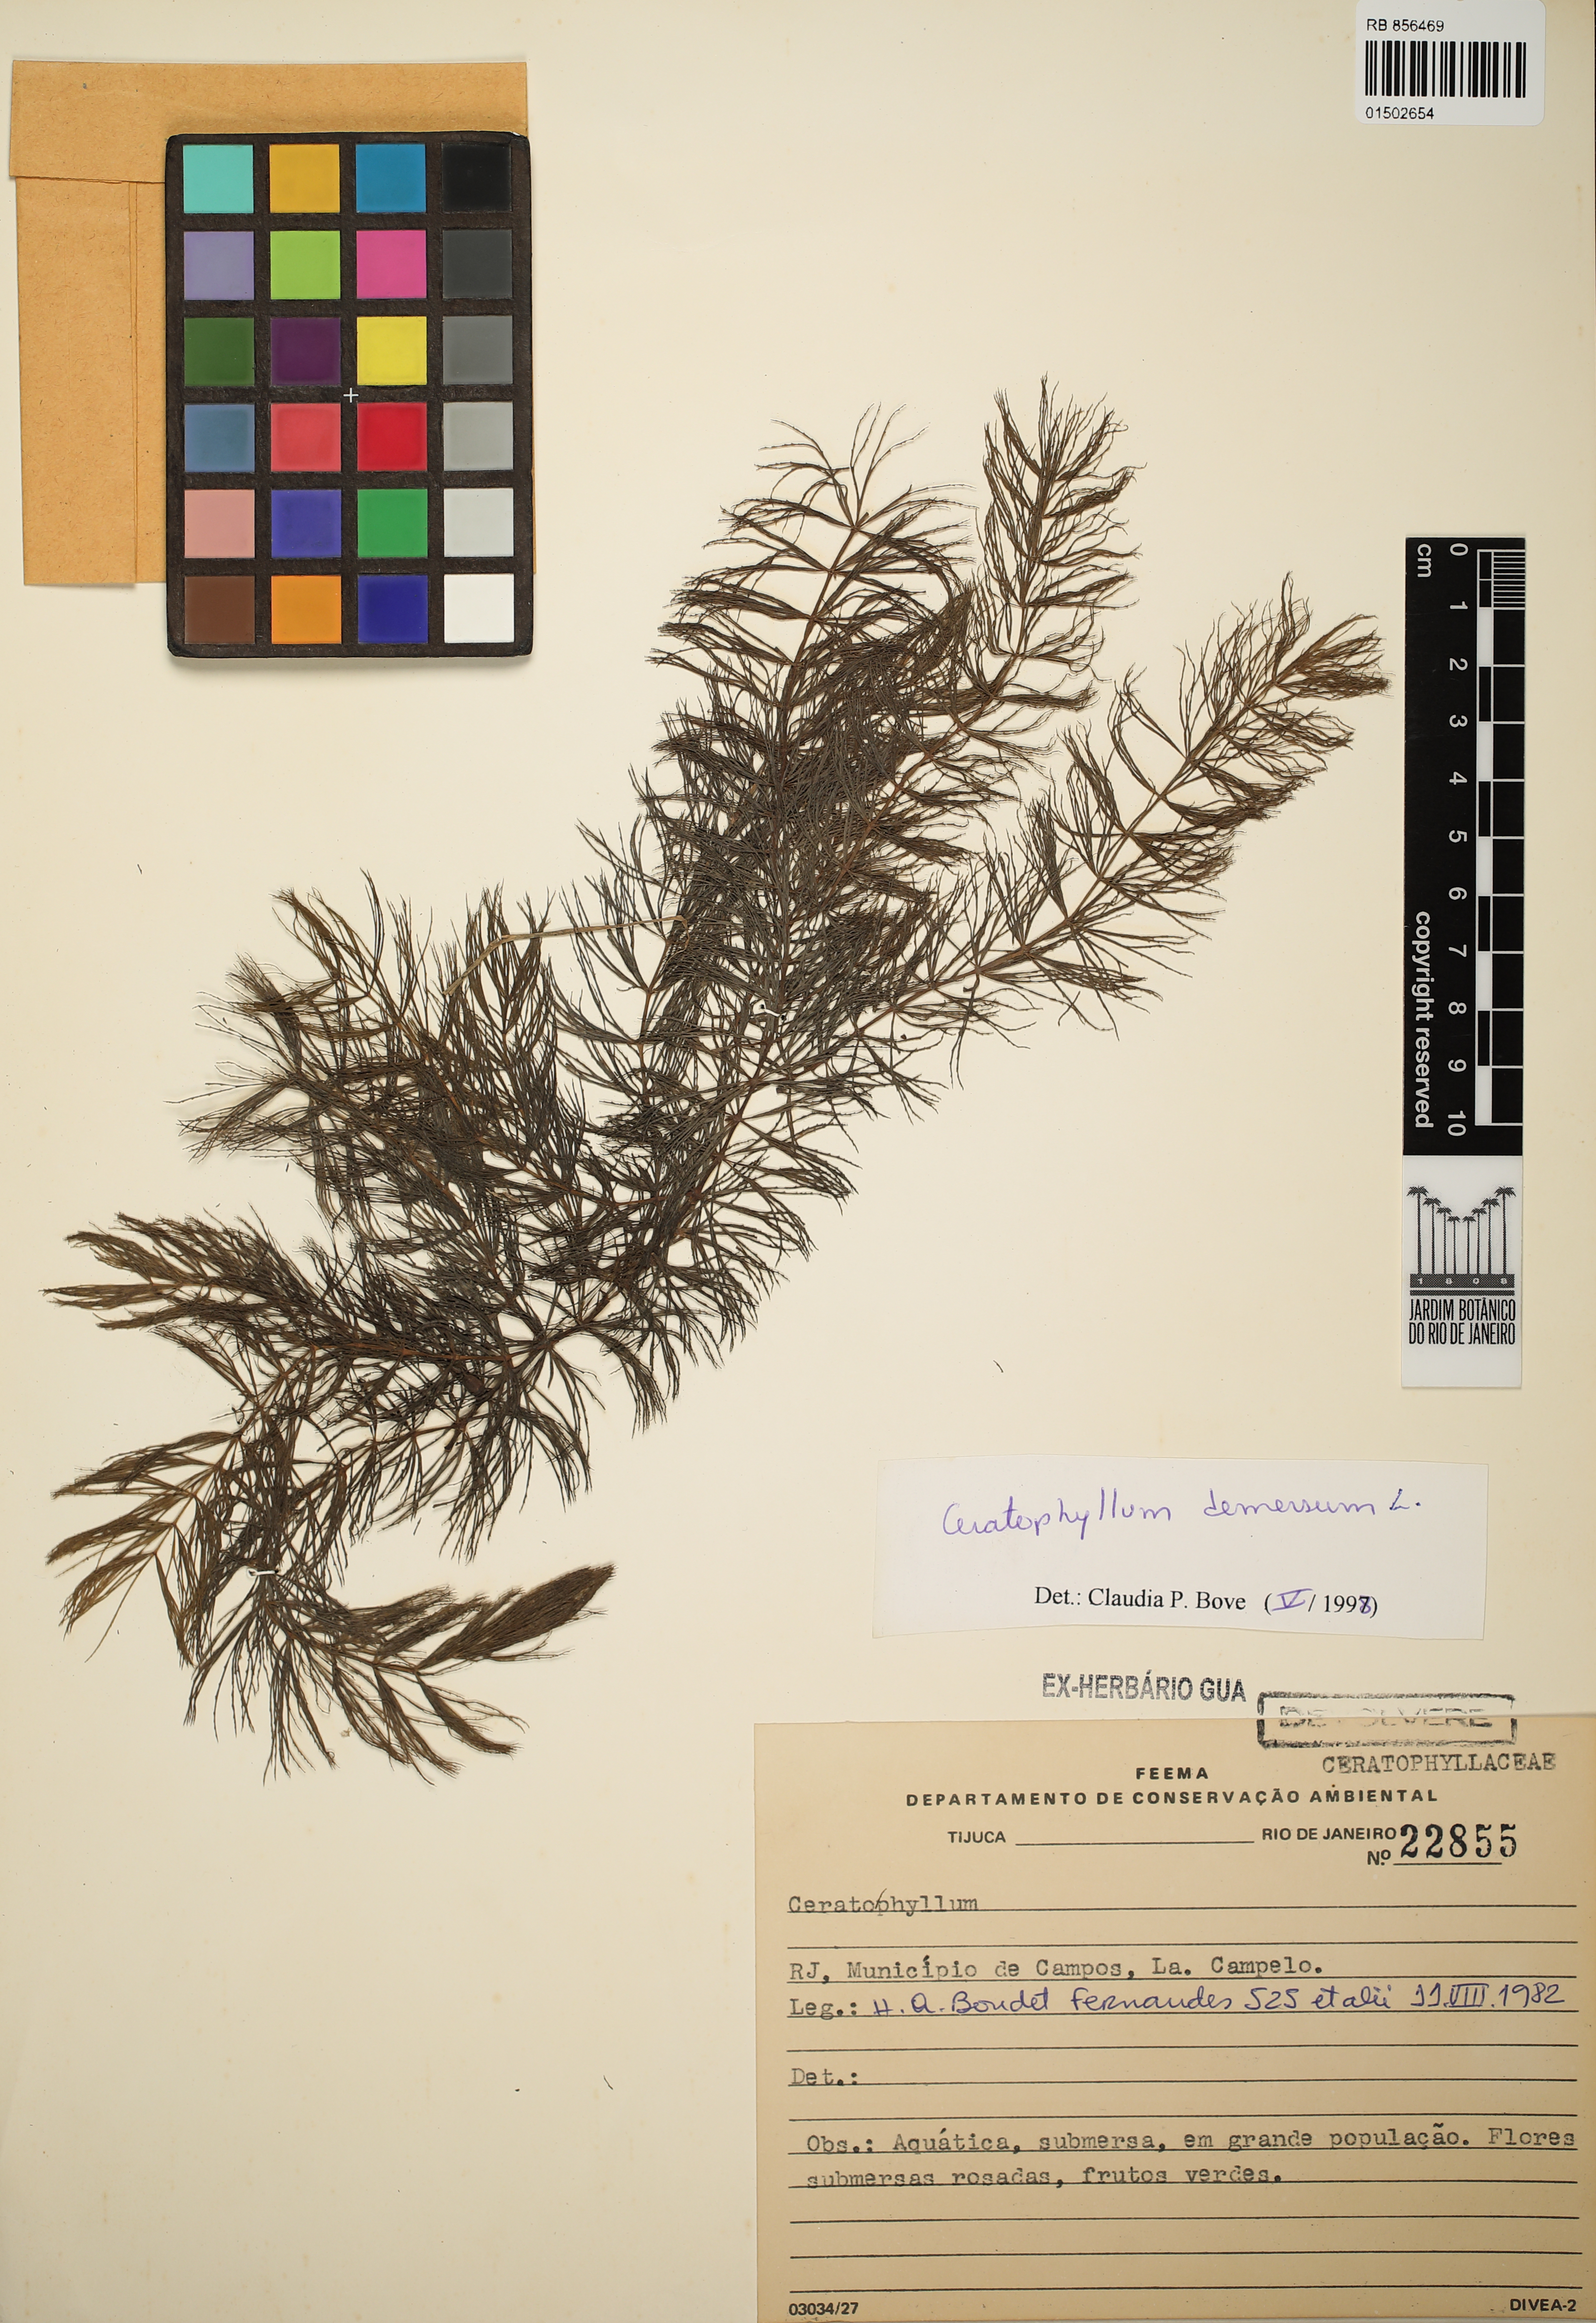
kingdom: Plantae
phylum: Tracheophyta
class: Magnoliopsida
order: Ceratophyllales
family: Ceratophyllaceae
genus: Ceratophyllum
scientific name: Ceratophyllum demersum
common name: Rigid hornwort
